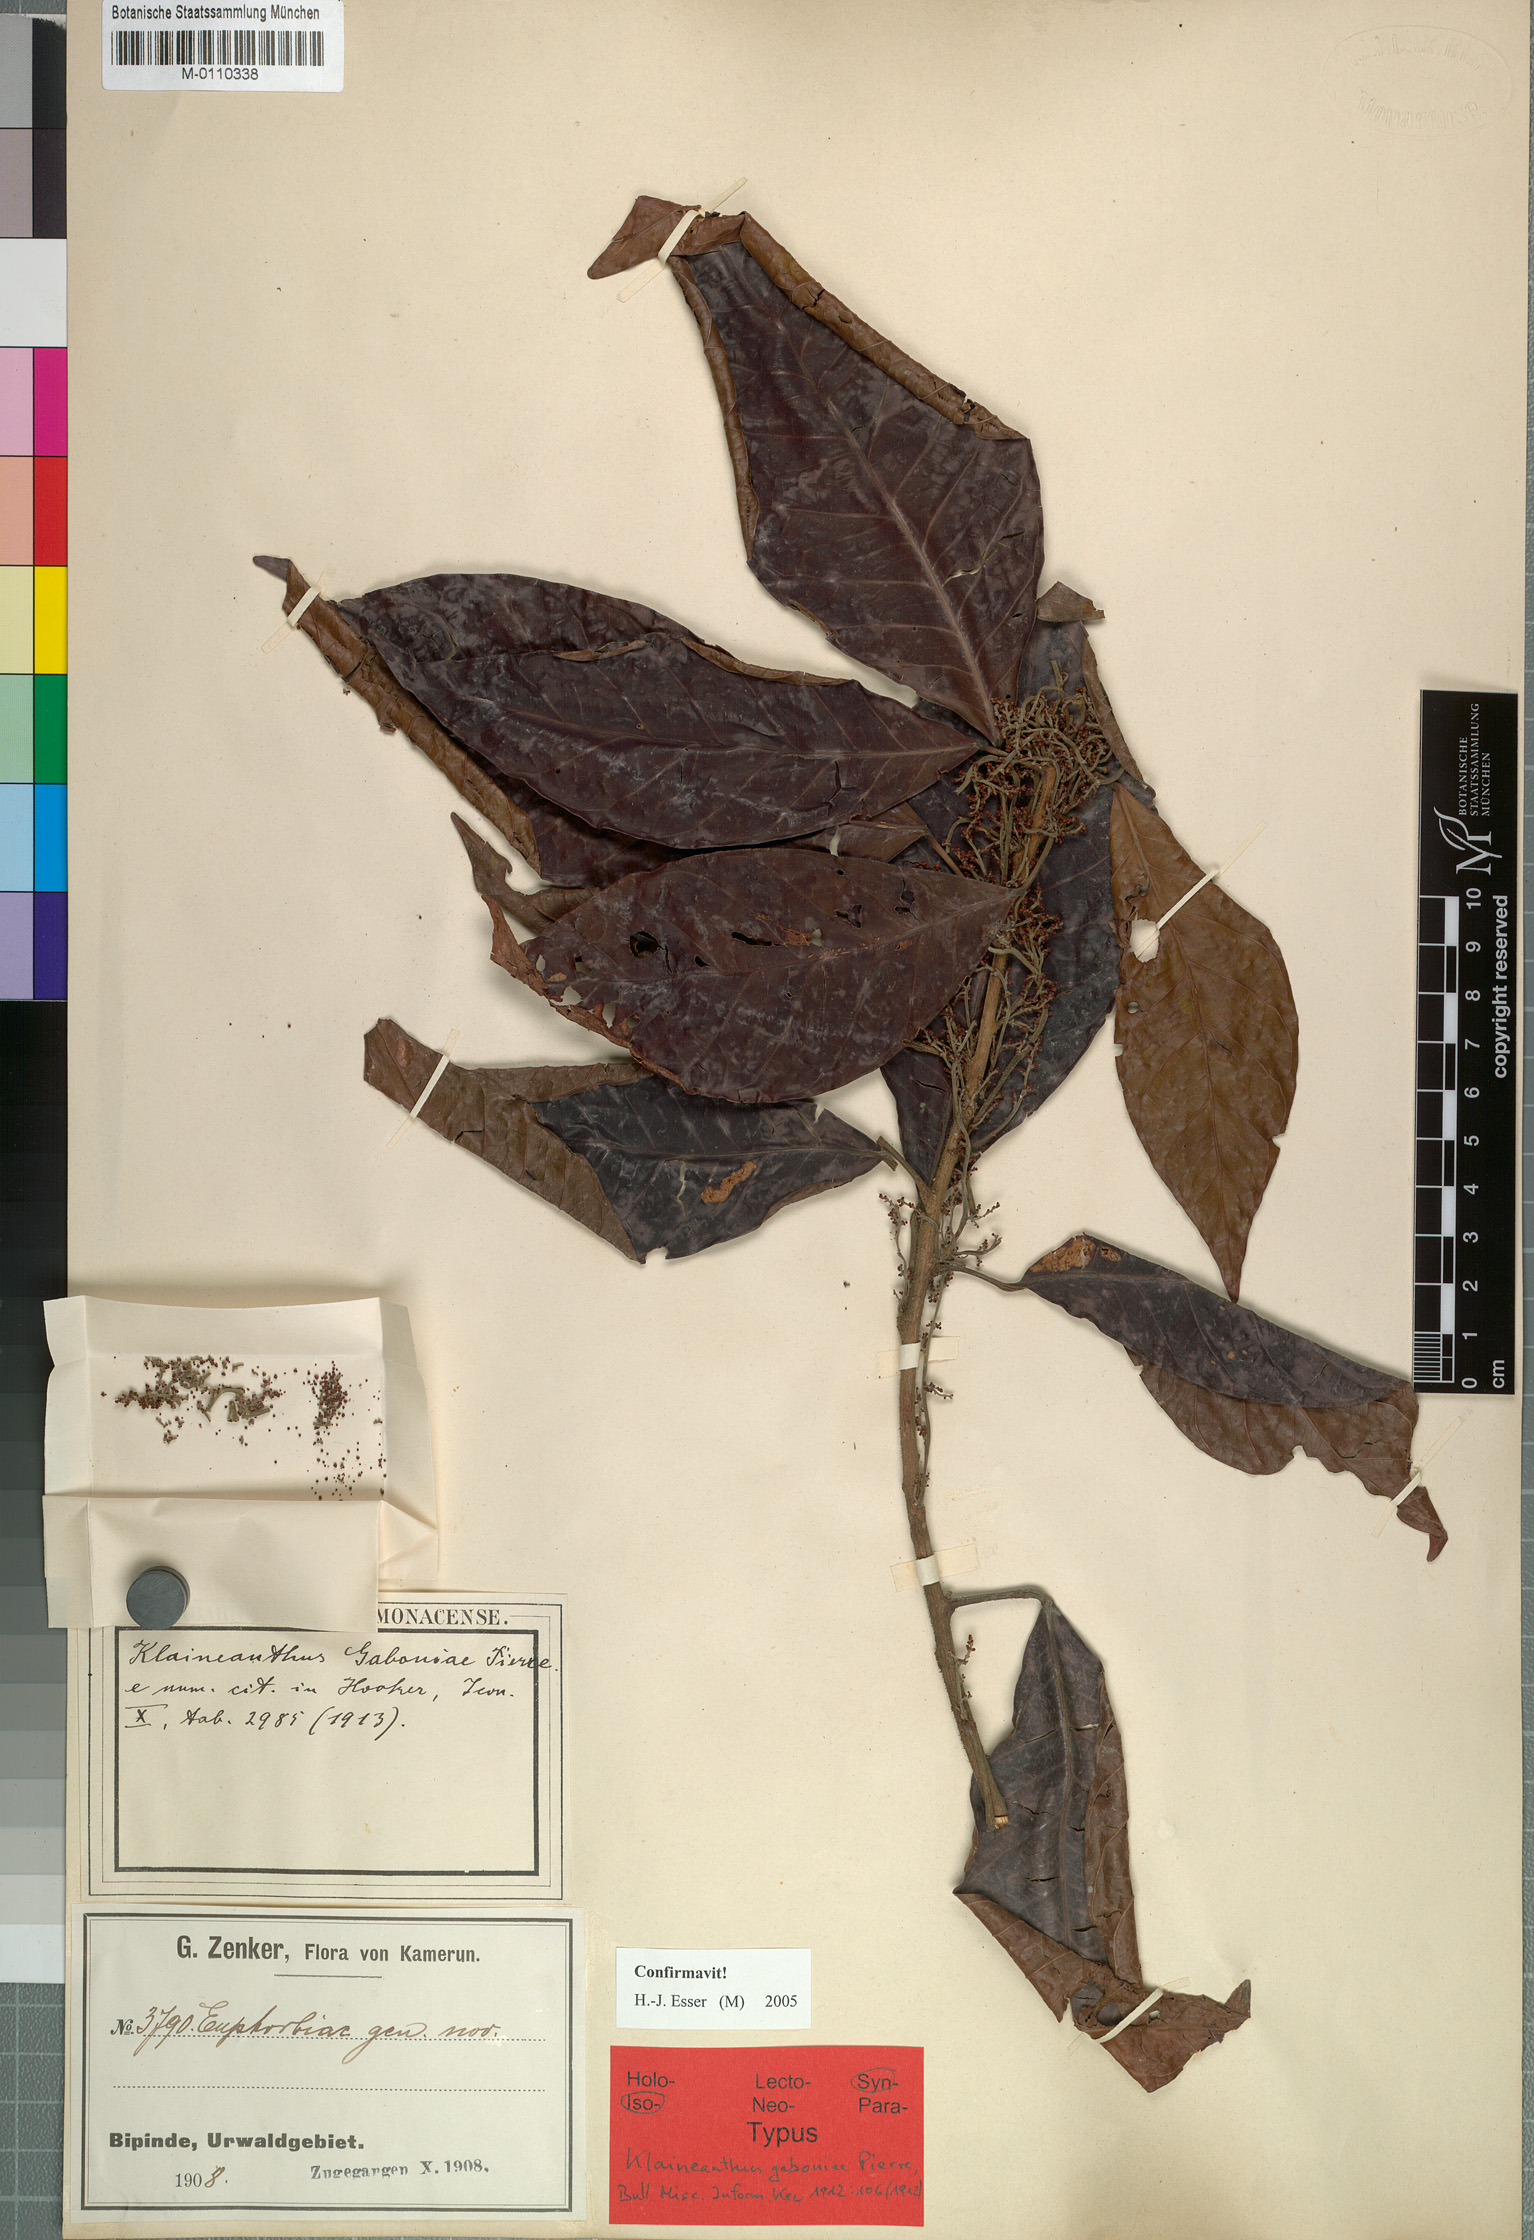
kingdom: Plantae
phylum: Tracheophyta
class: Magnoliopsida
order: Malpighiales
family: Euphorbiaceae
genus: Klaineanthus
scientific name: Klaineanthus gaboniae
